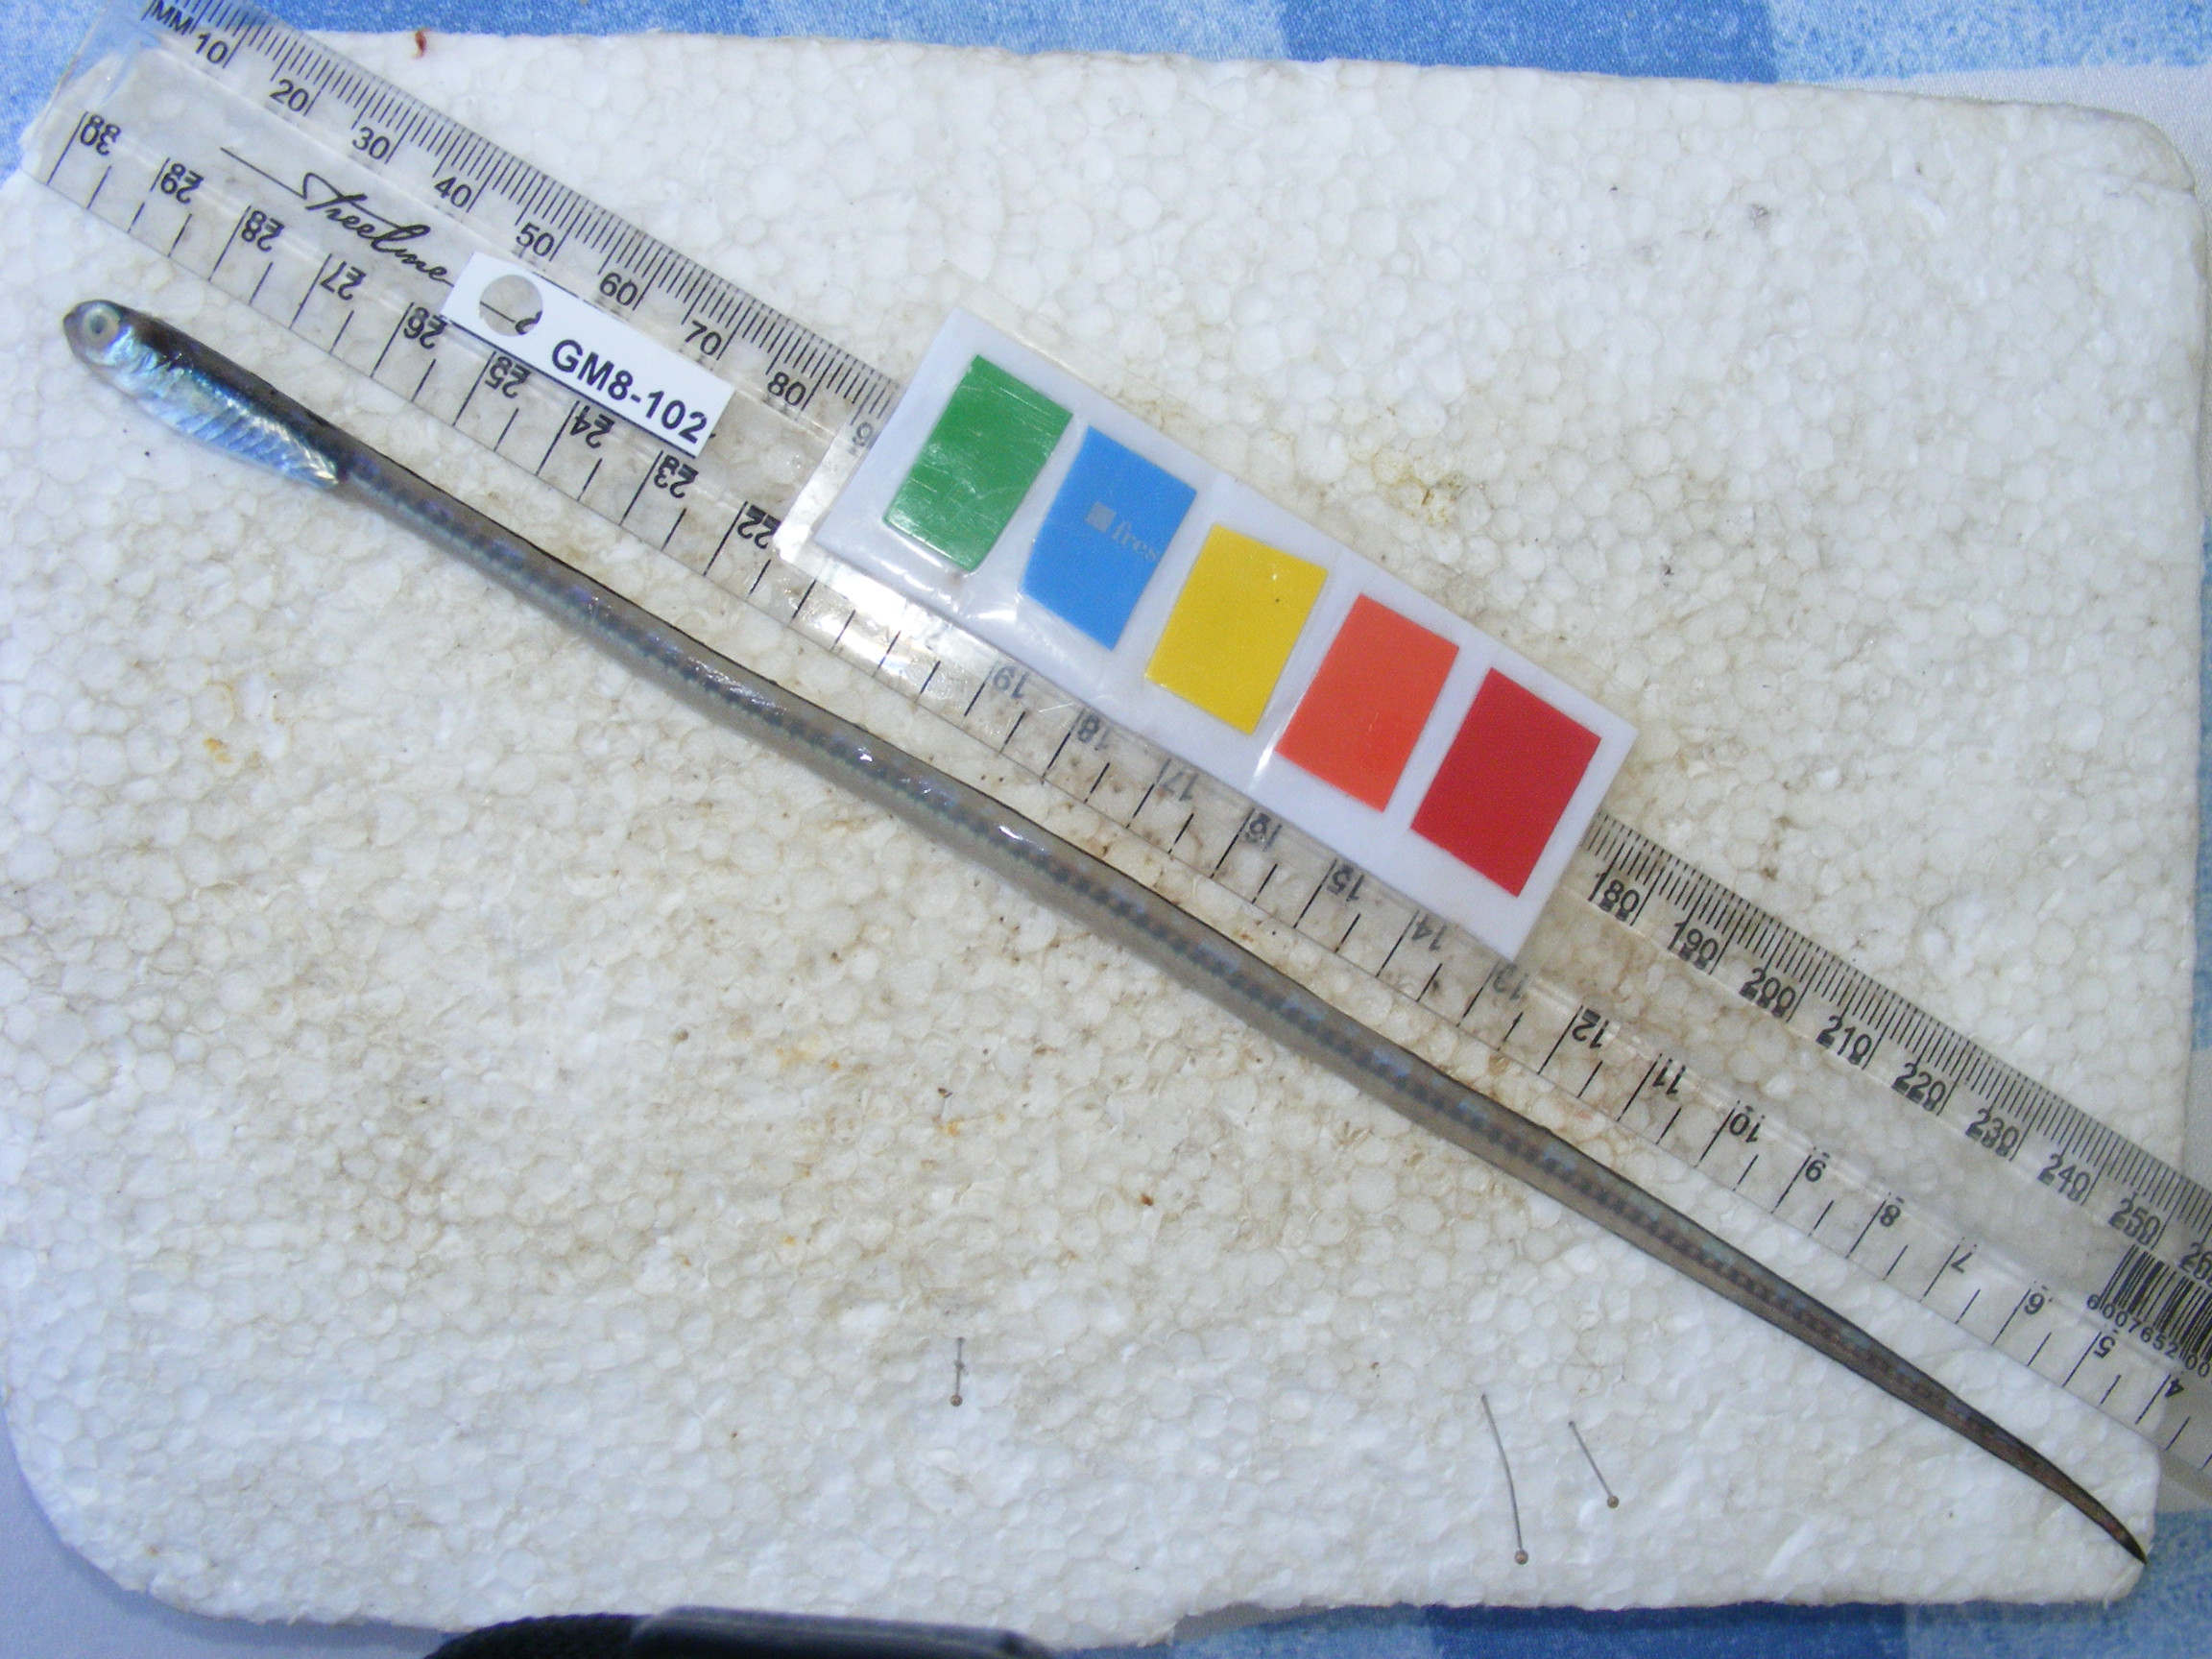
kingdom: Animalia
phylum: Chordata
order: Perciformes
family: Blenniidae
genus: Xiphasia
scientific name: Xiphasia matsubarai
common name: Japanese snake blenny
